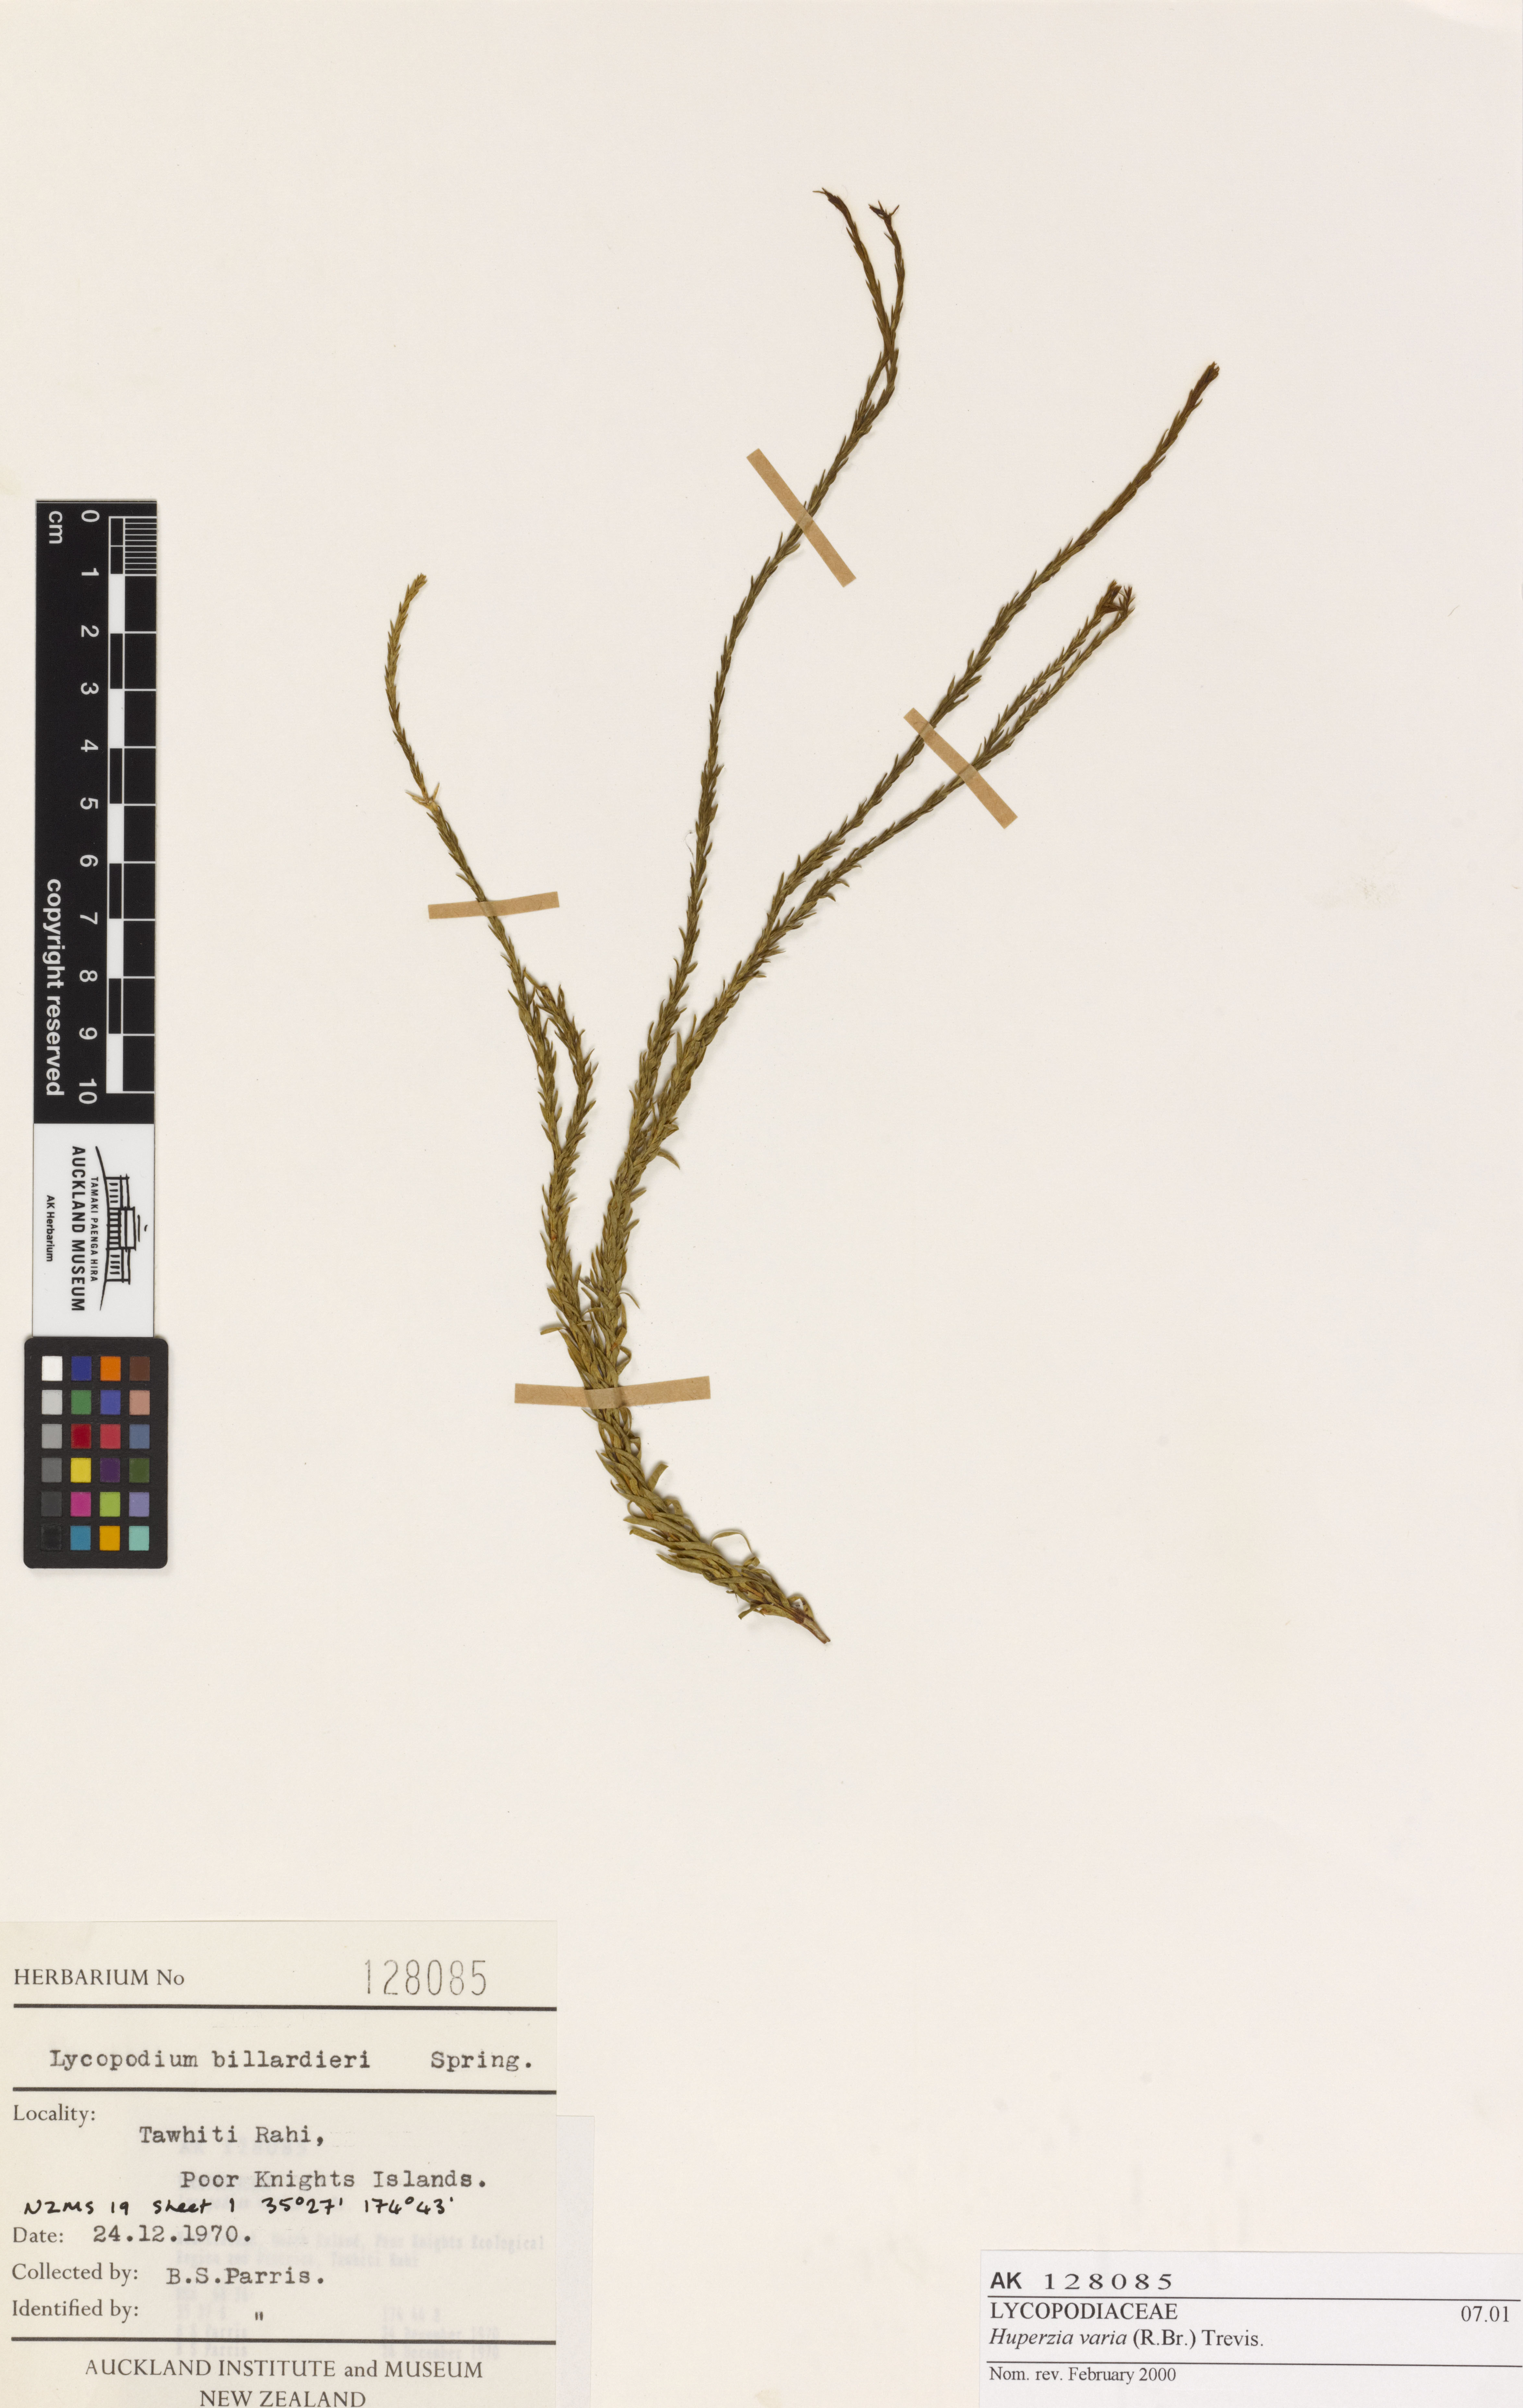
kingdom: Plantae
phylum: Tracheophyta
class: Lycopodiopsida
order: Lycopodiales
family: Lycopodiaceae
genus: Phlegmariurus
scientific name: Phlegmariurus billardierei
